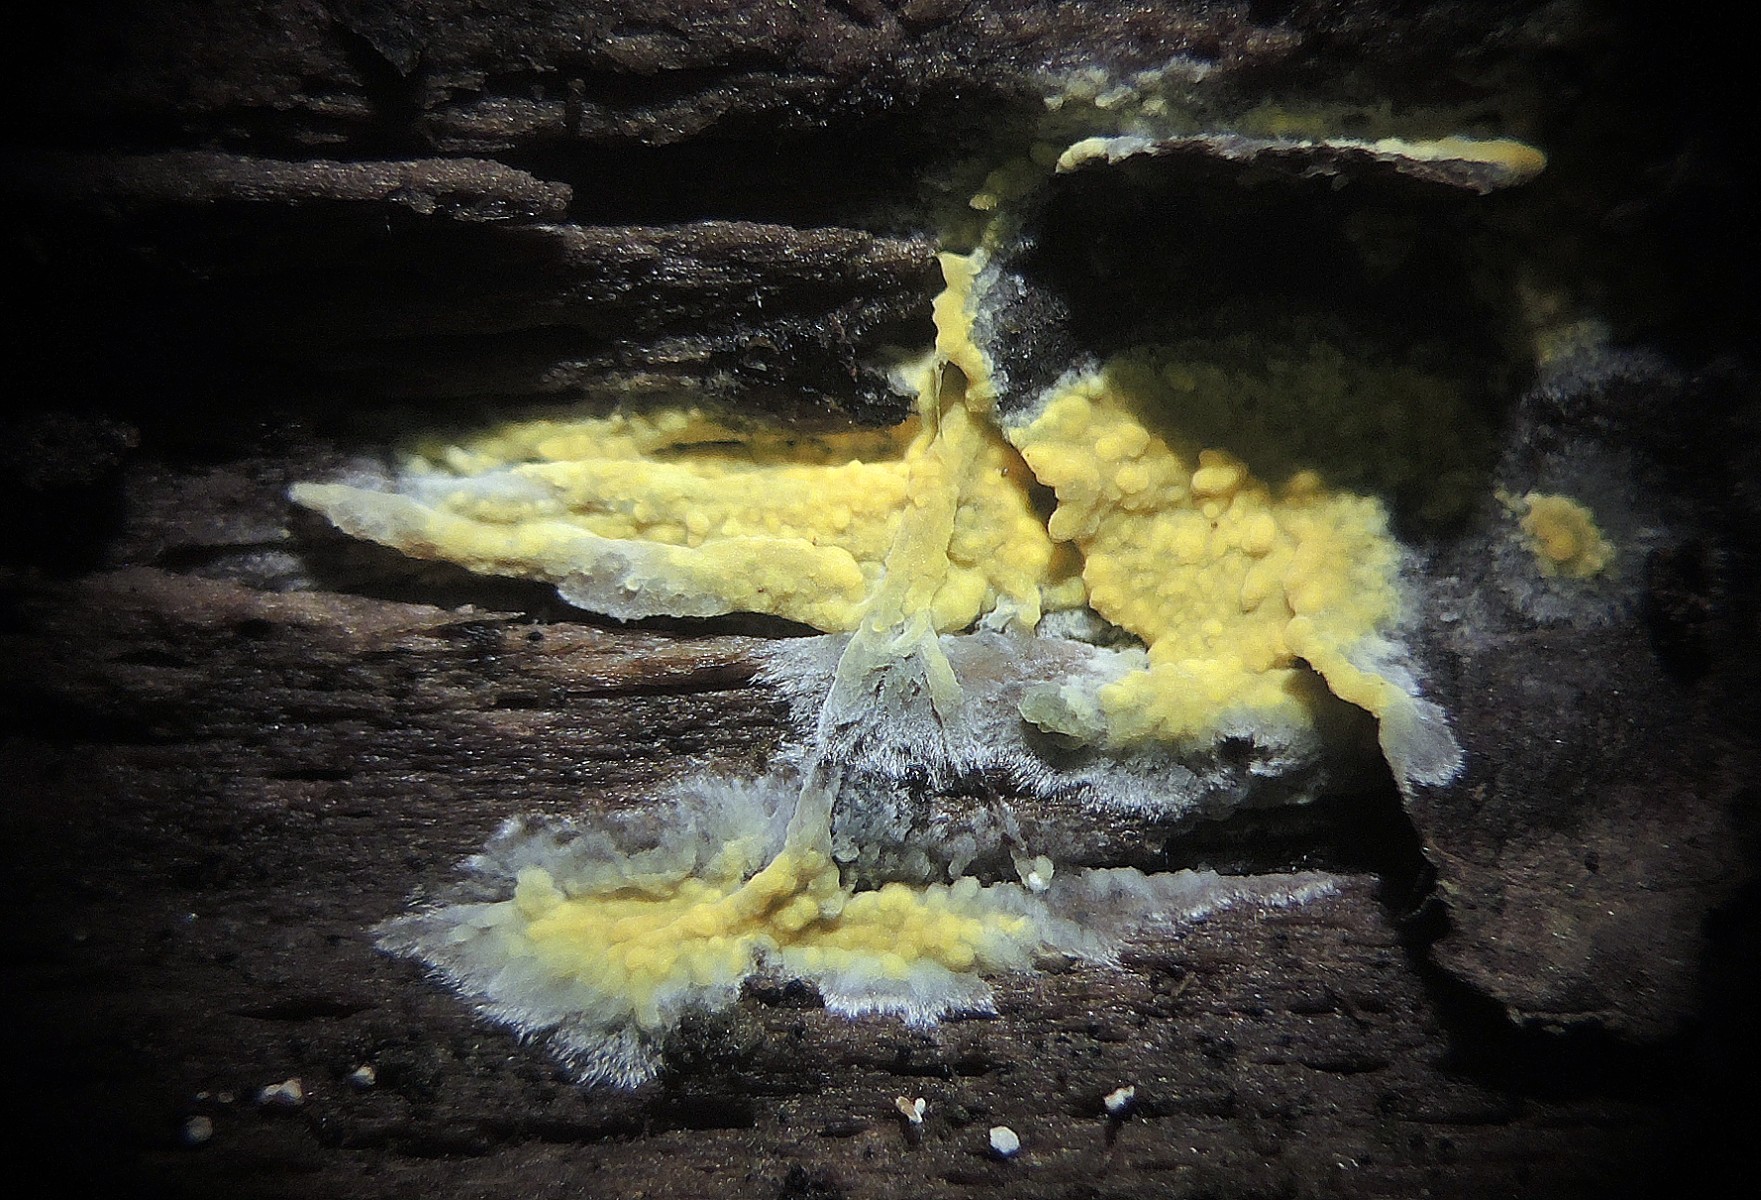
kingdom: Fungi
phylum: Basidiomycota
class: Agaricomycetes
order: Polyporales
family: Meruliaceae
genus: Phlebiodontia
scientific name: Phlebiodontia subochracea
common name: svovl-åresvamp
